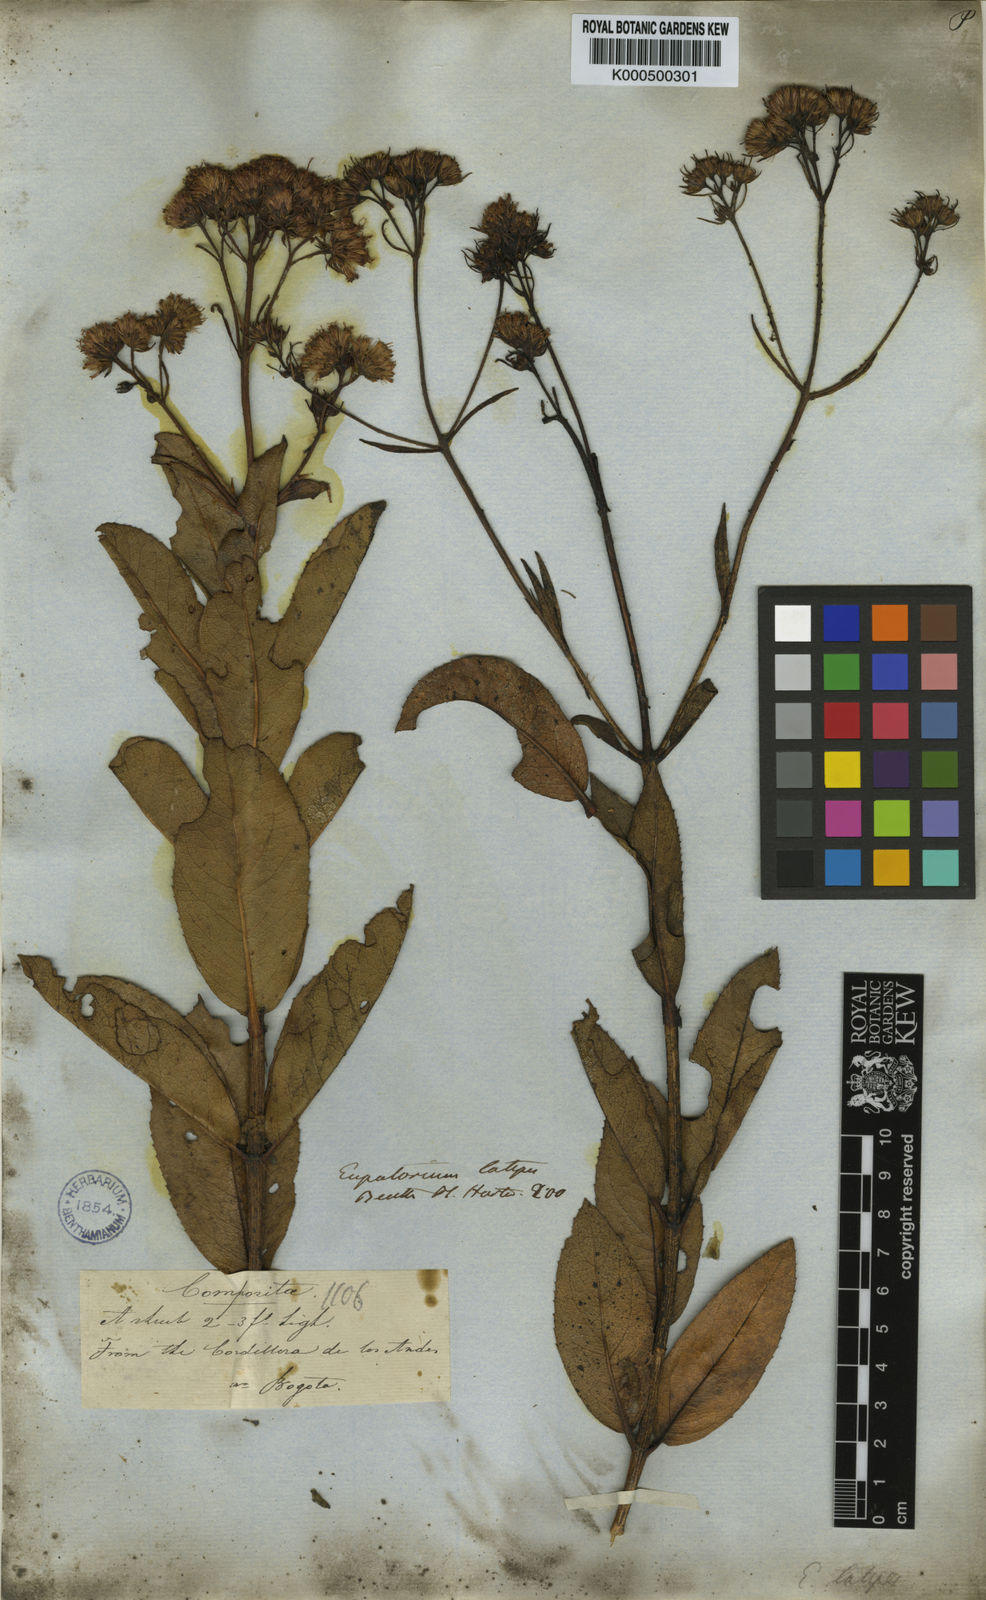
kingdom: Plantae
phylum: Tracheophyta
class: Magnoliopsida
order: Asterales
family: Asteraceae
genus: Ageratina
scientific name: Ageratina latipes
